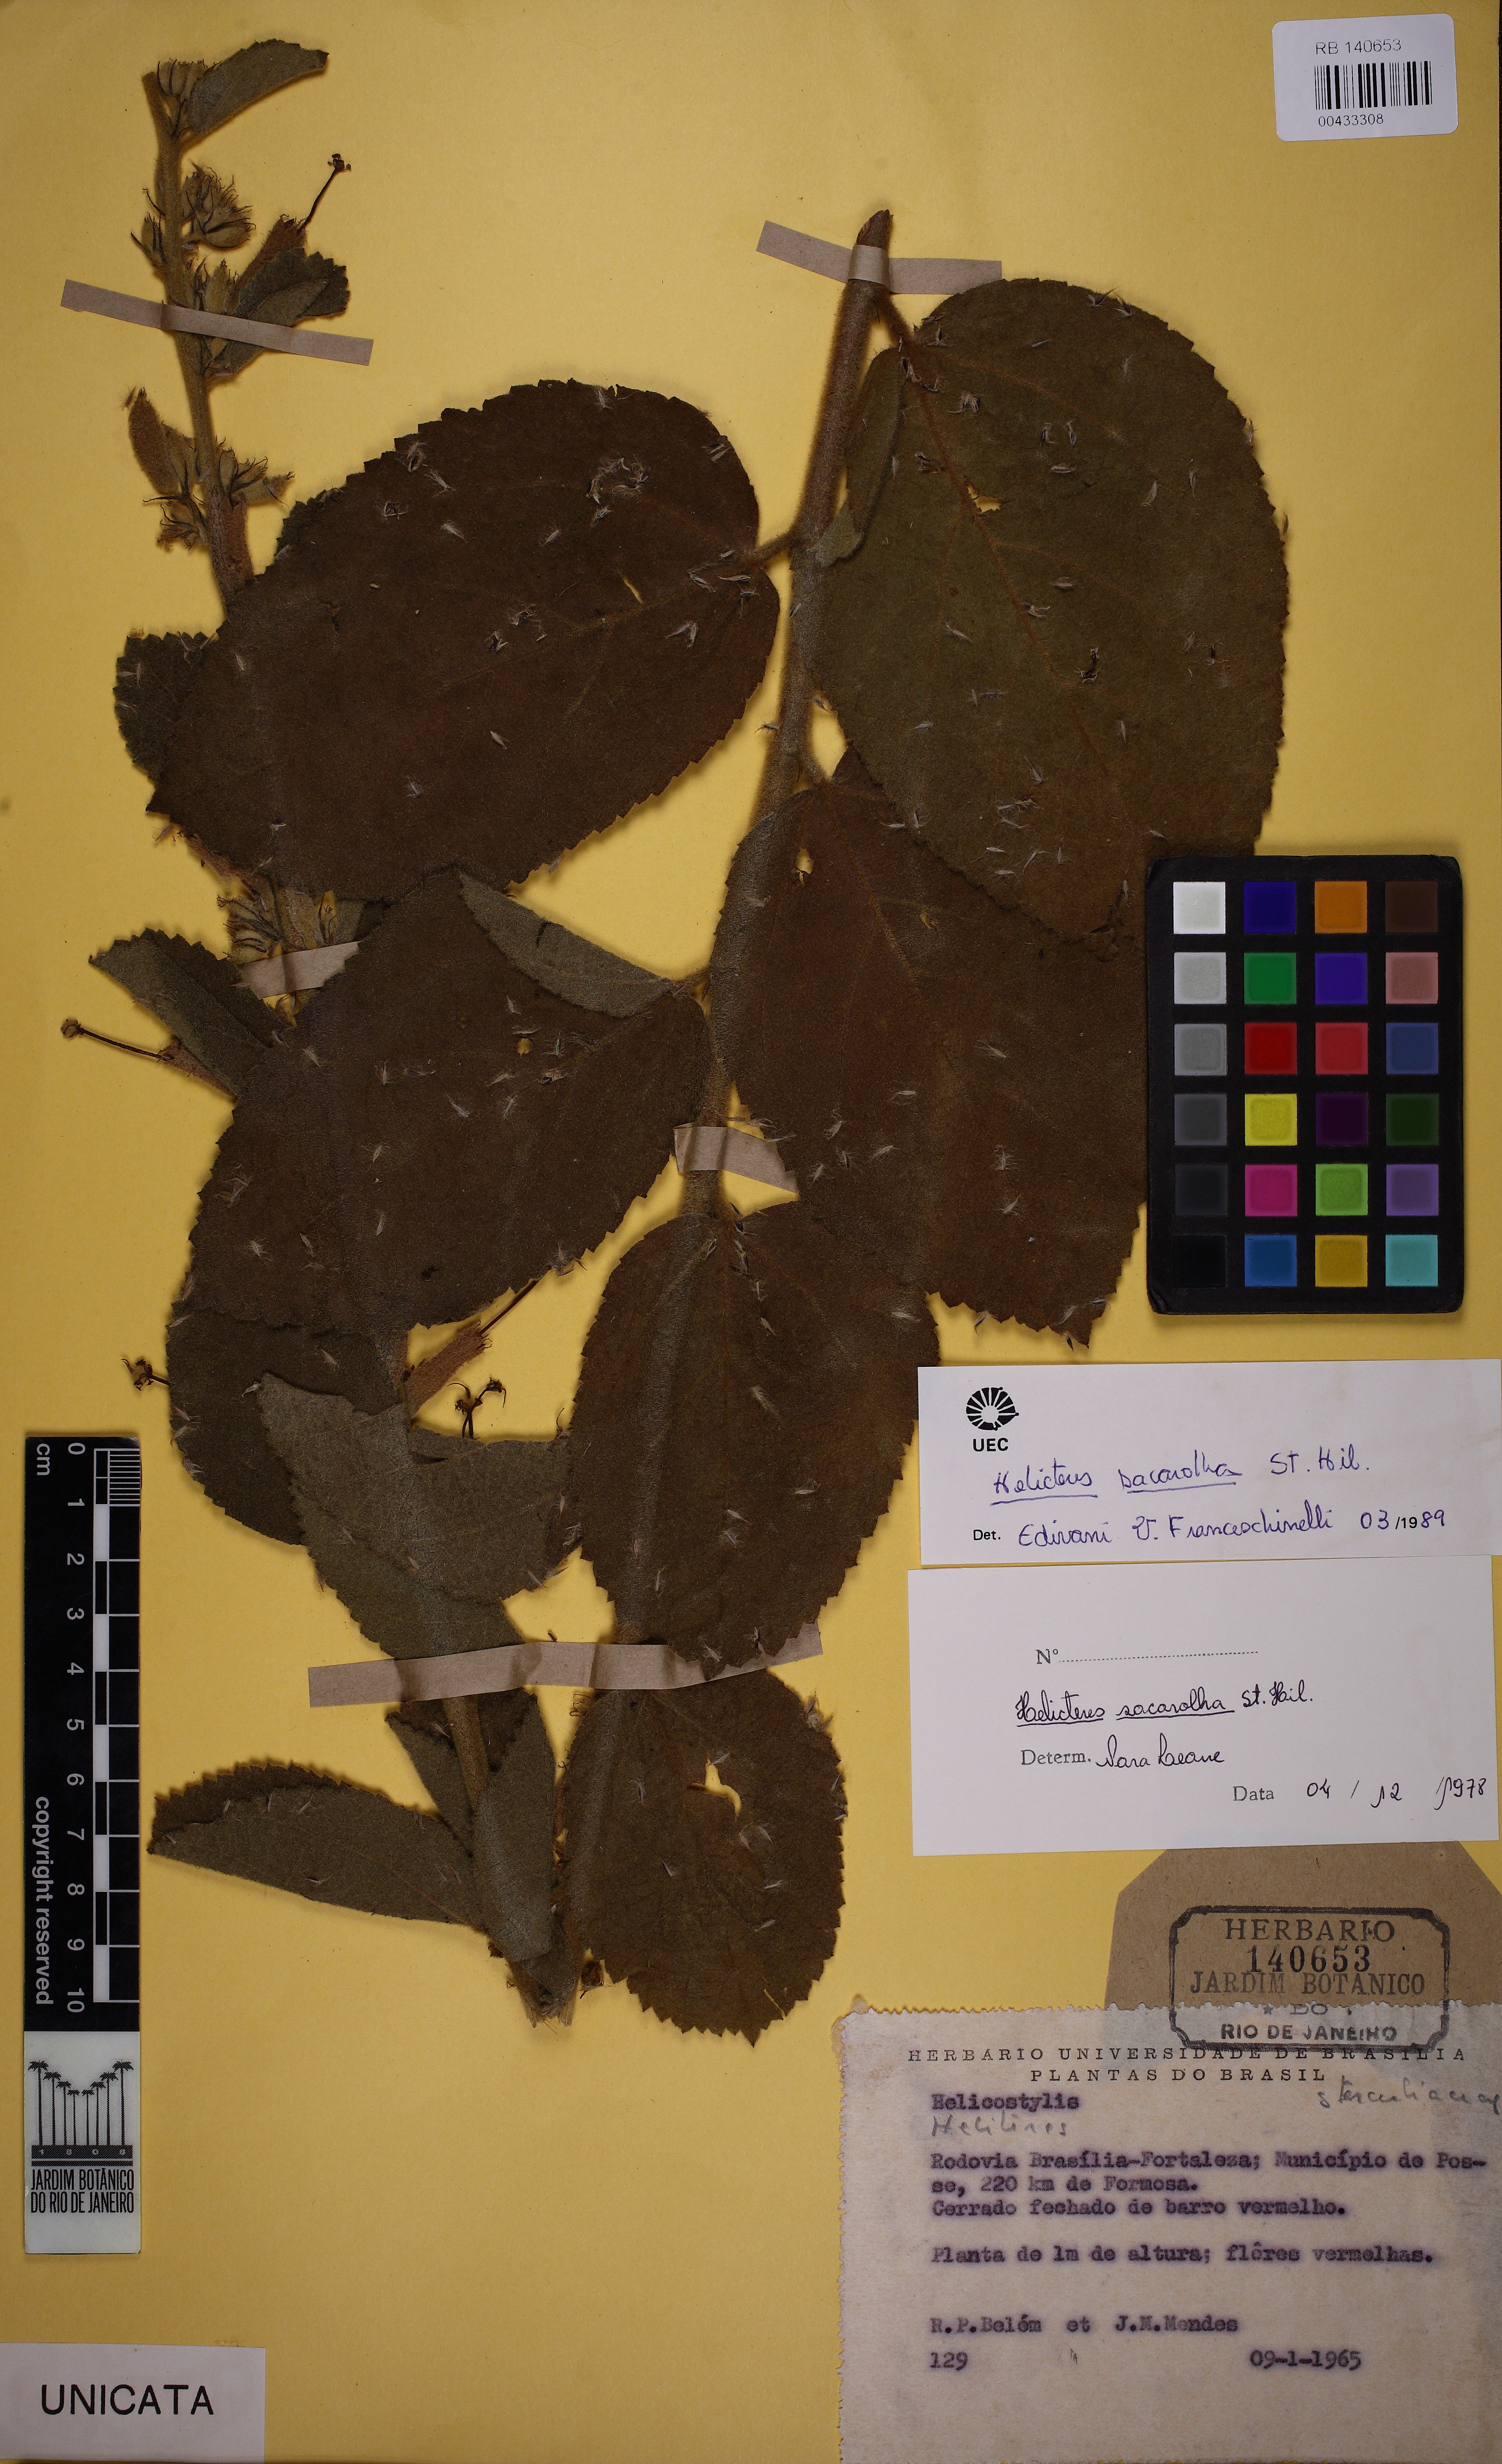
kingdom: Plantae
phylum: Tracheophyta
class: Magnoliopsida
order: Malvales
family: Malvaceae
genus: Helicteres
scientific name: Helicteres sacarolha
